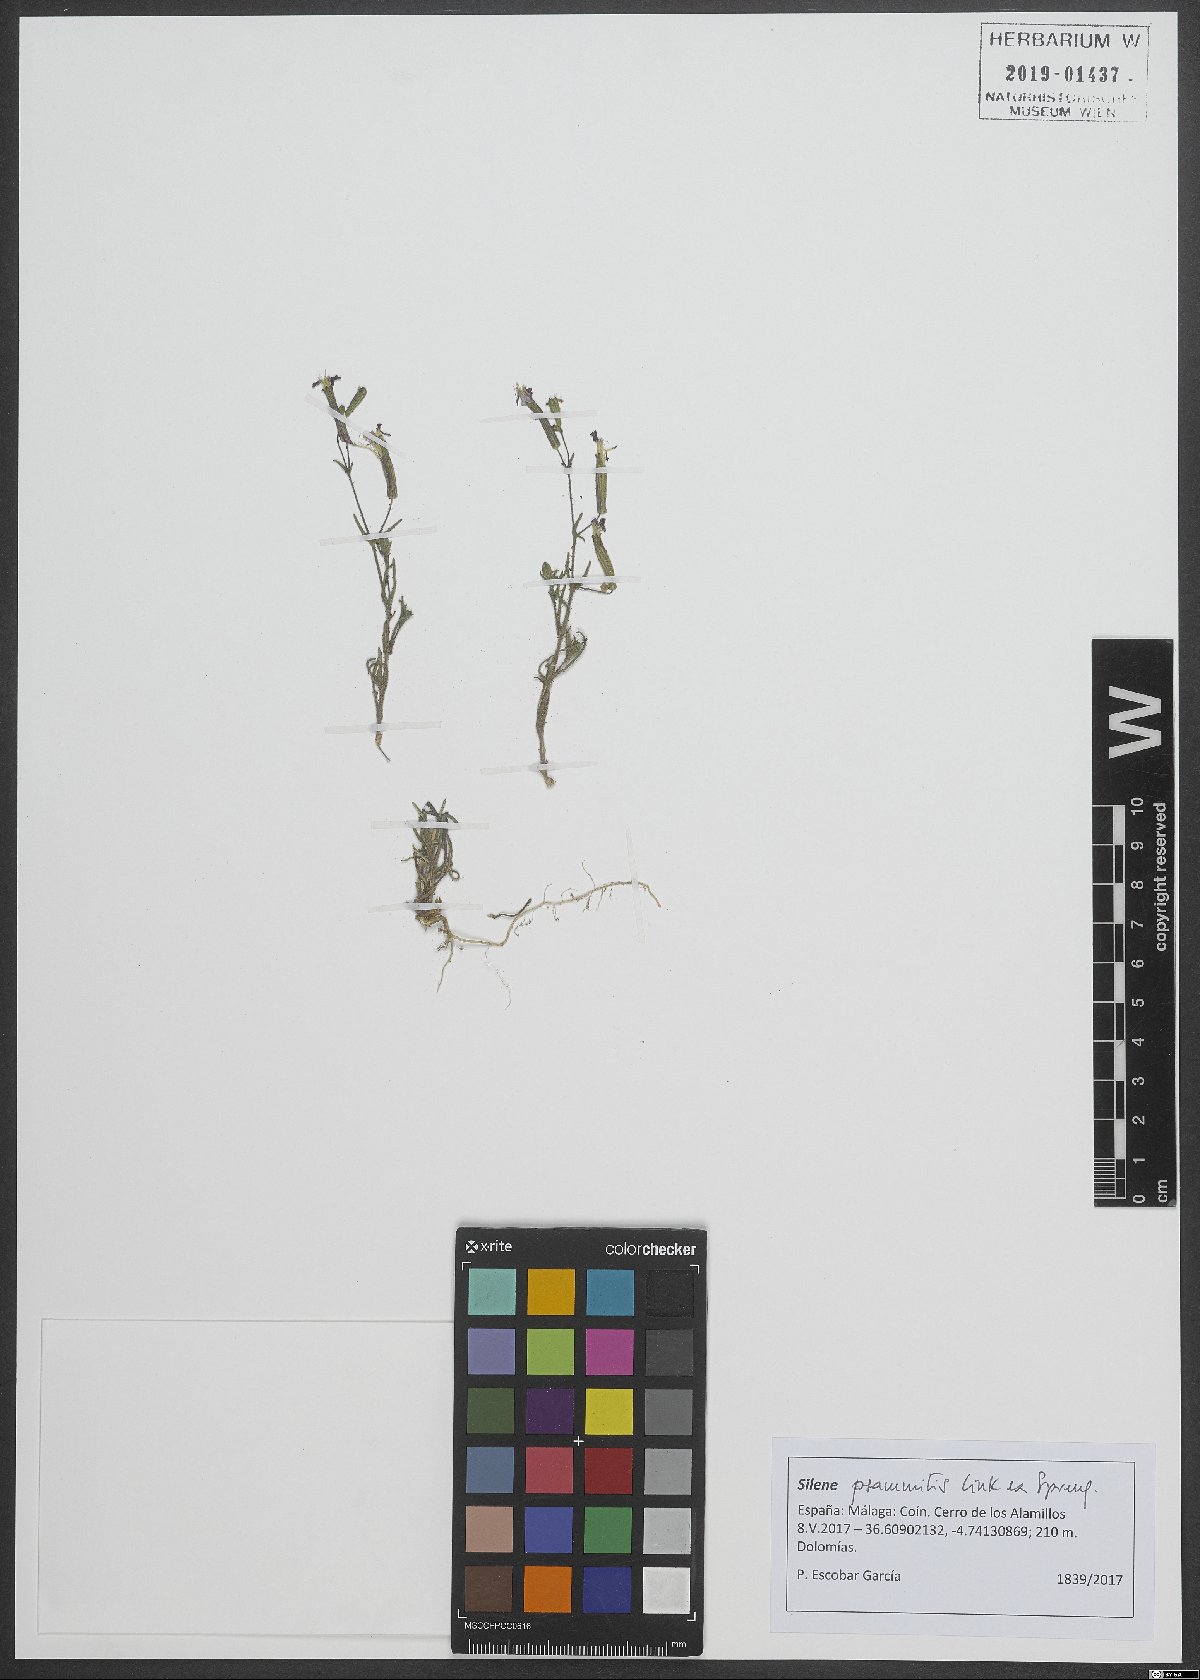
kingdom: Plantae
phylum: Tracheophyta
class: Magnoliopsida
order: Caryophyllales
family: Caryophyllaceae
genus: Silene
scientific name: Silene psammitis
